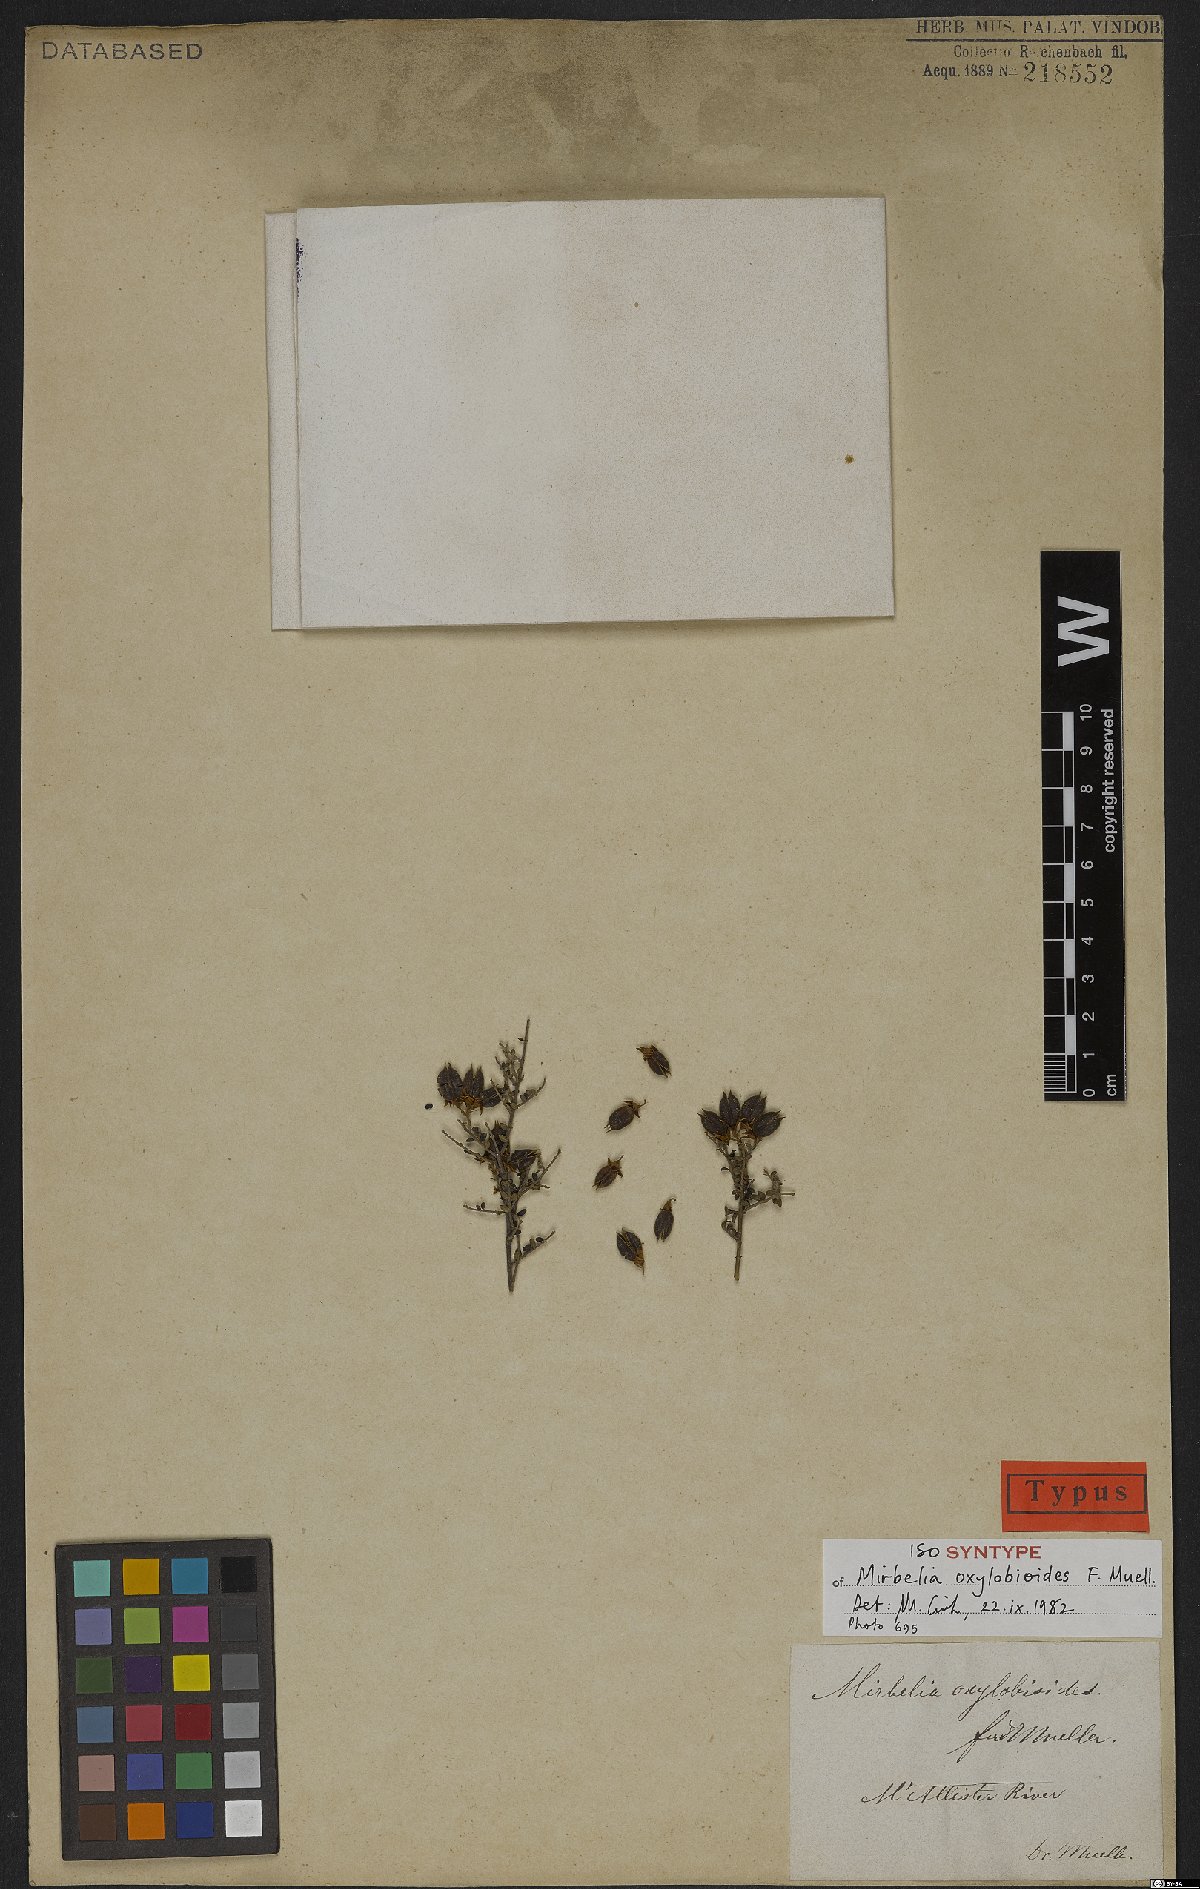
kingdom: Plantae
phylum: Tracheophyta
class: Magnoliopsida
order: Fabales
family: Fabaceae
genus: Oxylobium
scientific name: Oxylobium oxylobioides
